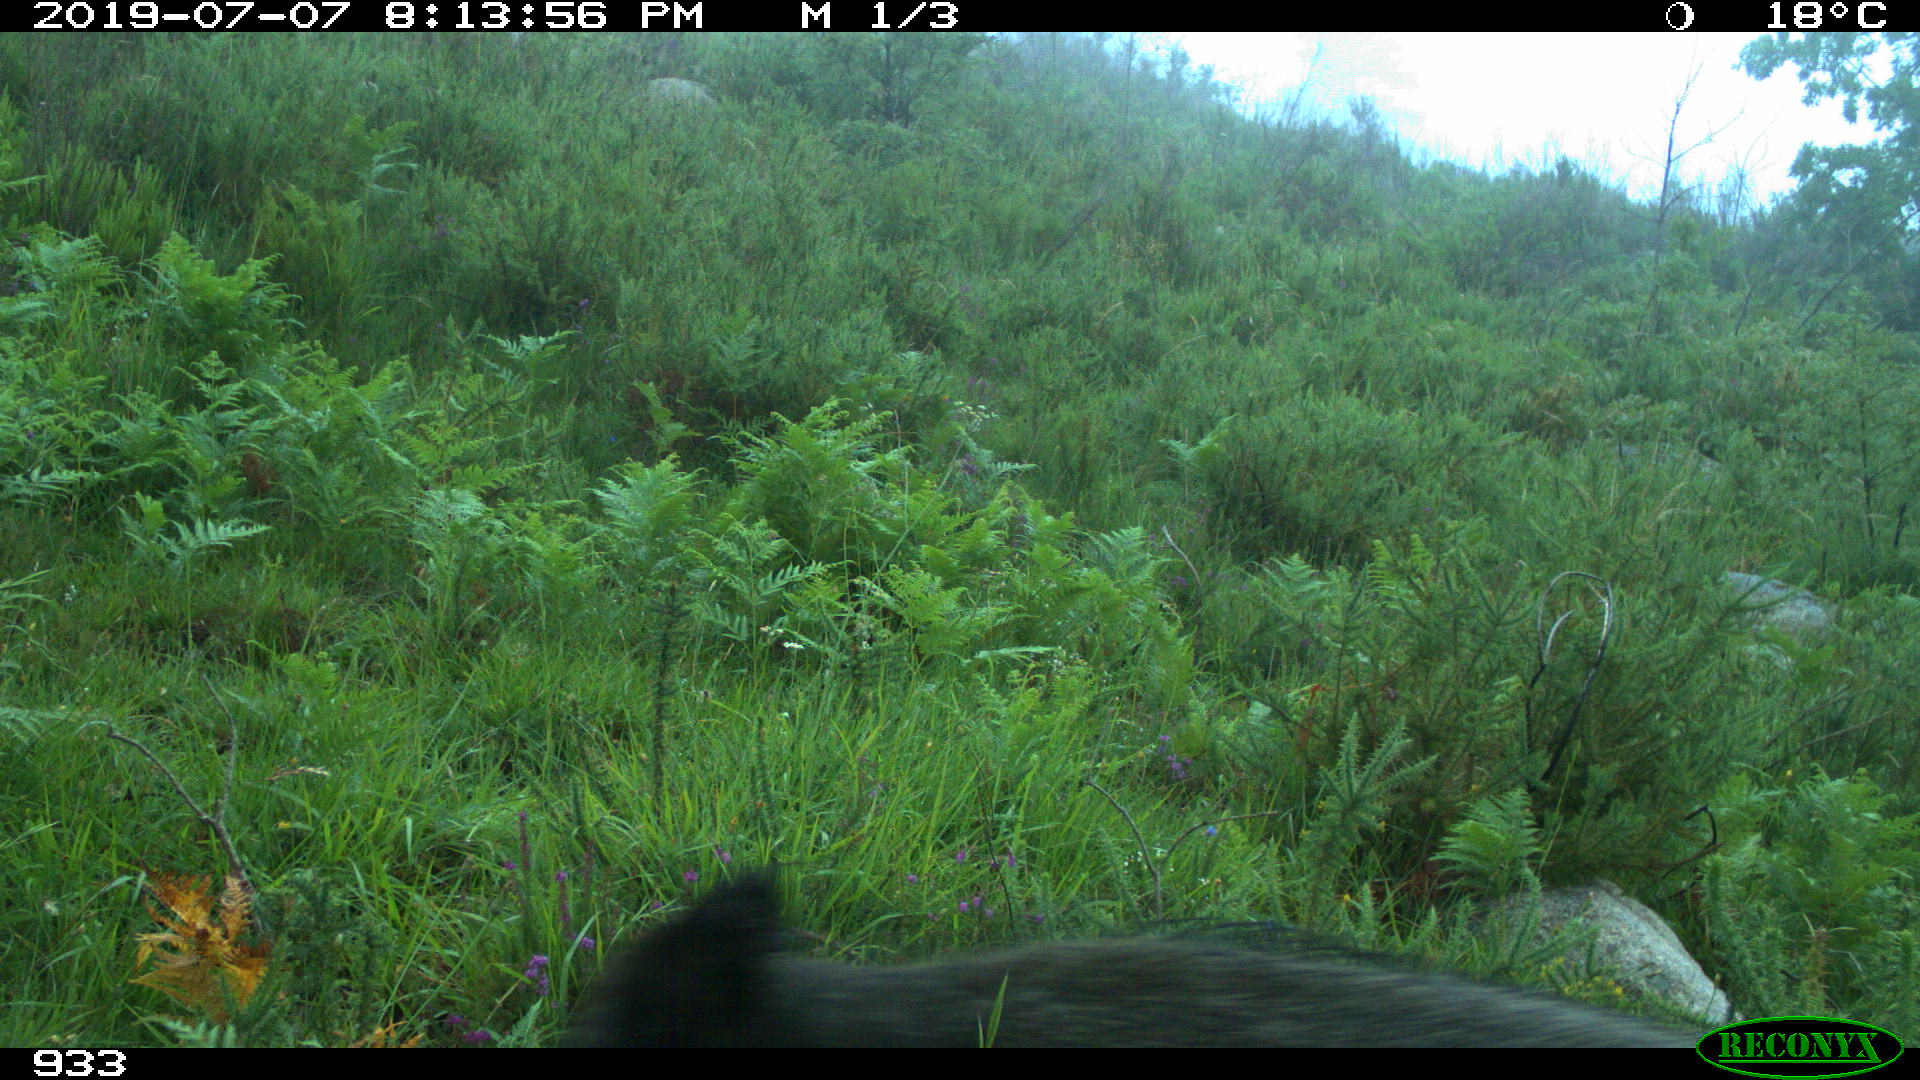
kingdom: Animalia
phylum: Chordata
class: Mammalia
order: Artiodactyla
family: Suidae
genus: Sus
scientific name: Sus scrofa
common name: Wild boar
